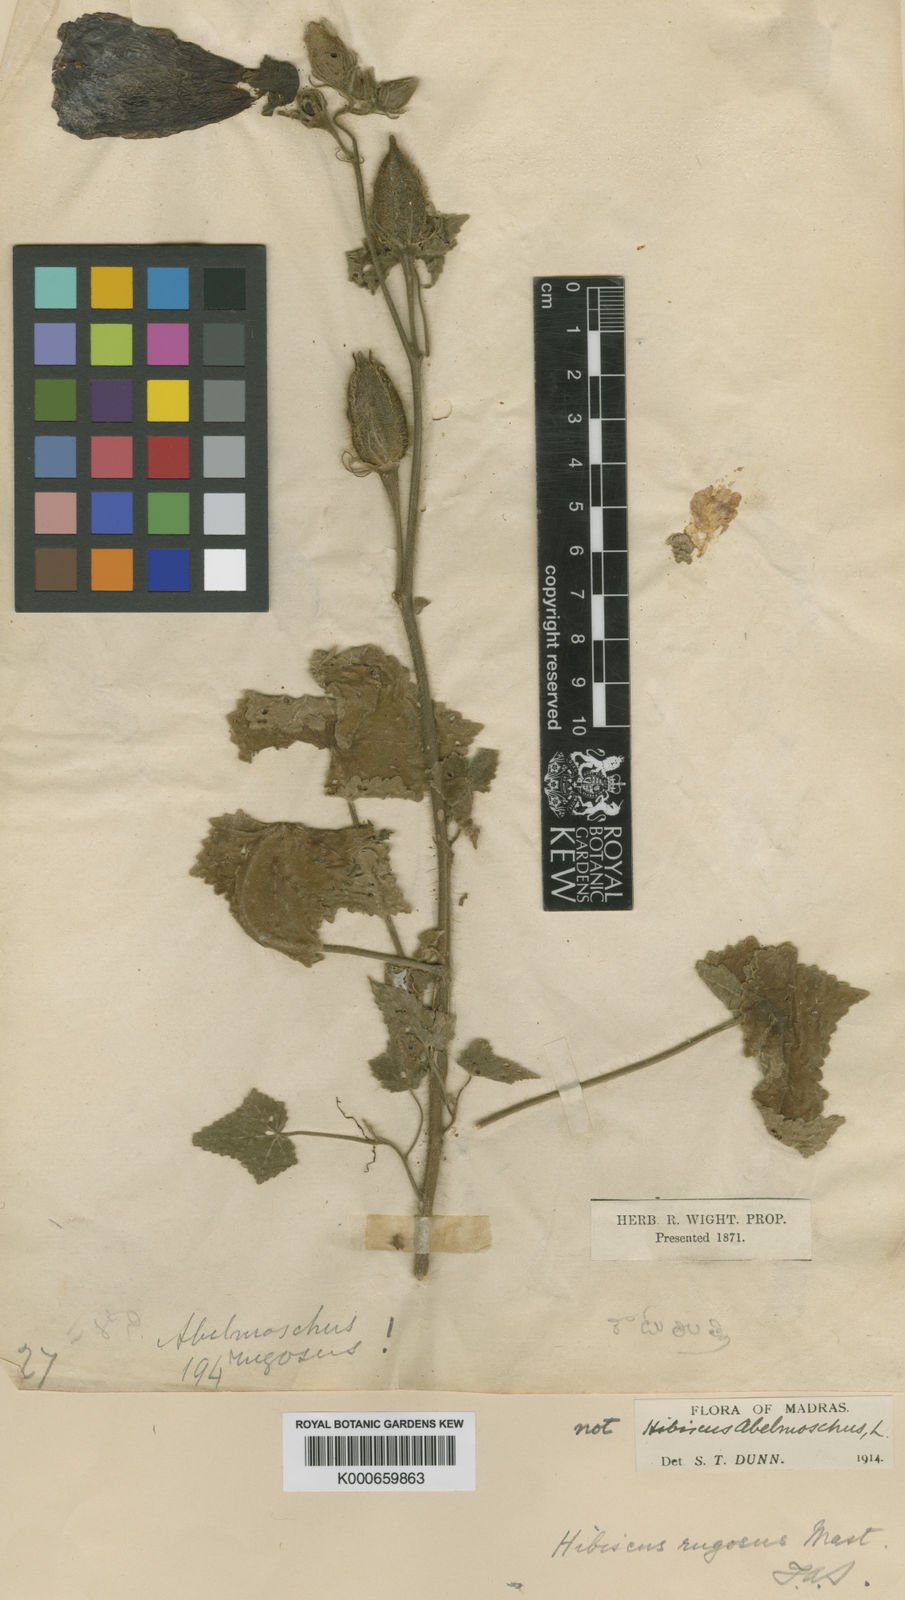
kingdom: Plantae
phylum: Tracheophyta
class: Magnoliopsida
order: Malvales
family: Malvaceae
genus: Abelmoschus
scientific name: Abelmoschus sagittifolius
